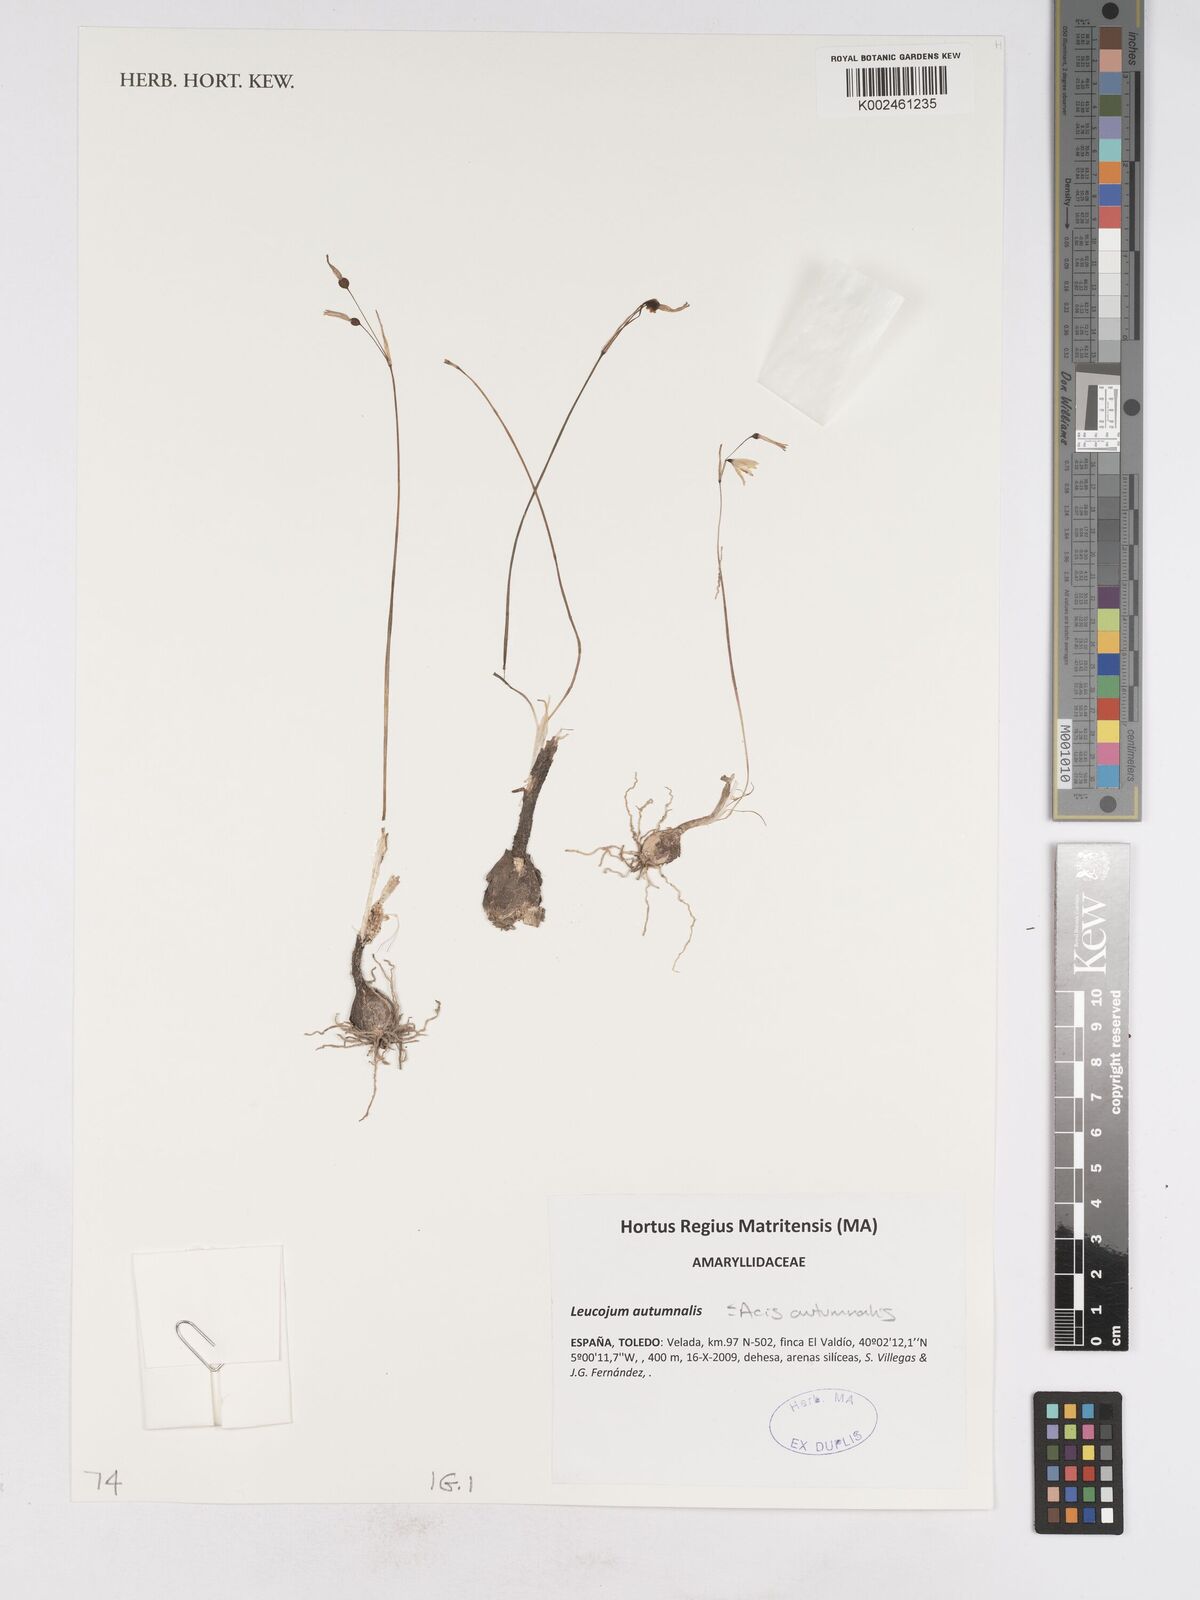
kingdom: Plantae
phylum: Tracheophyta
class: Liliopsida
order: Asparagales
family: Amaryllidaceae
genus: Acis
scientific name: Acis autumnalis
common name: Autumn snowflake
